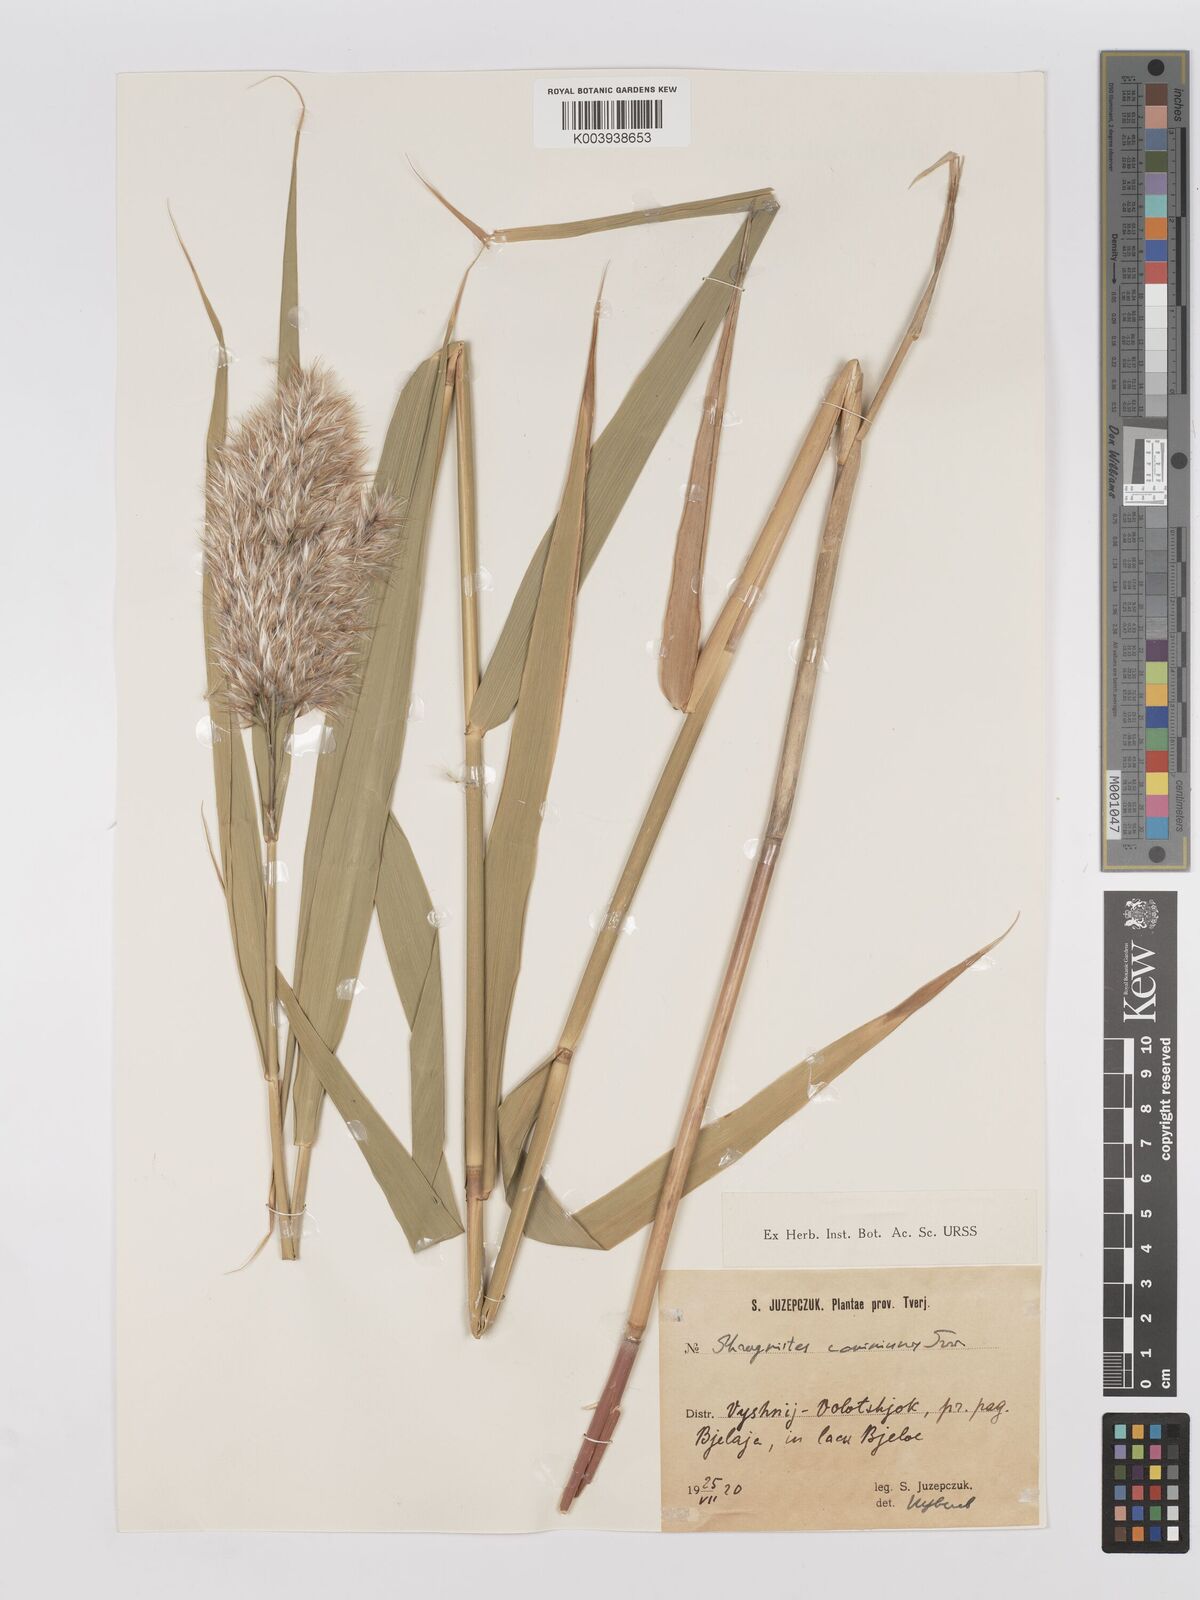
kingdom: Plantae
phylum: Tracheophyta
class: Liliopsida
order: Poales
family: Poaceae
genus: Phragmites
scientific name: Phragmites australis
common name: Common reed
